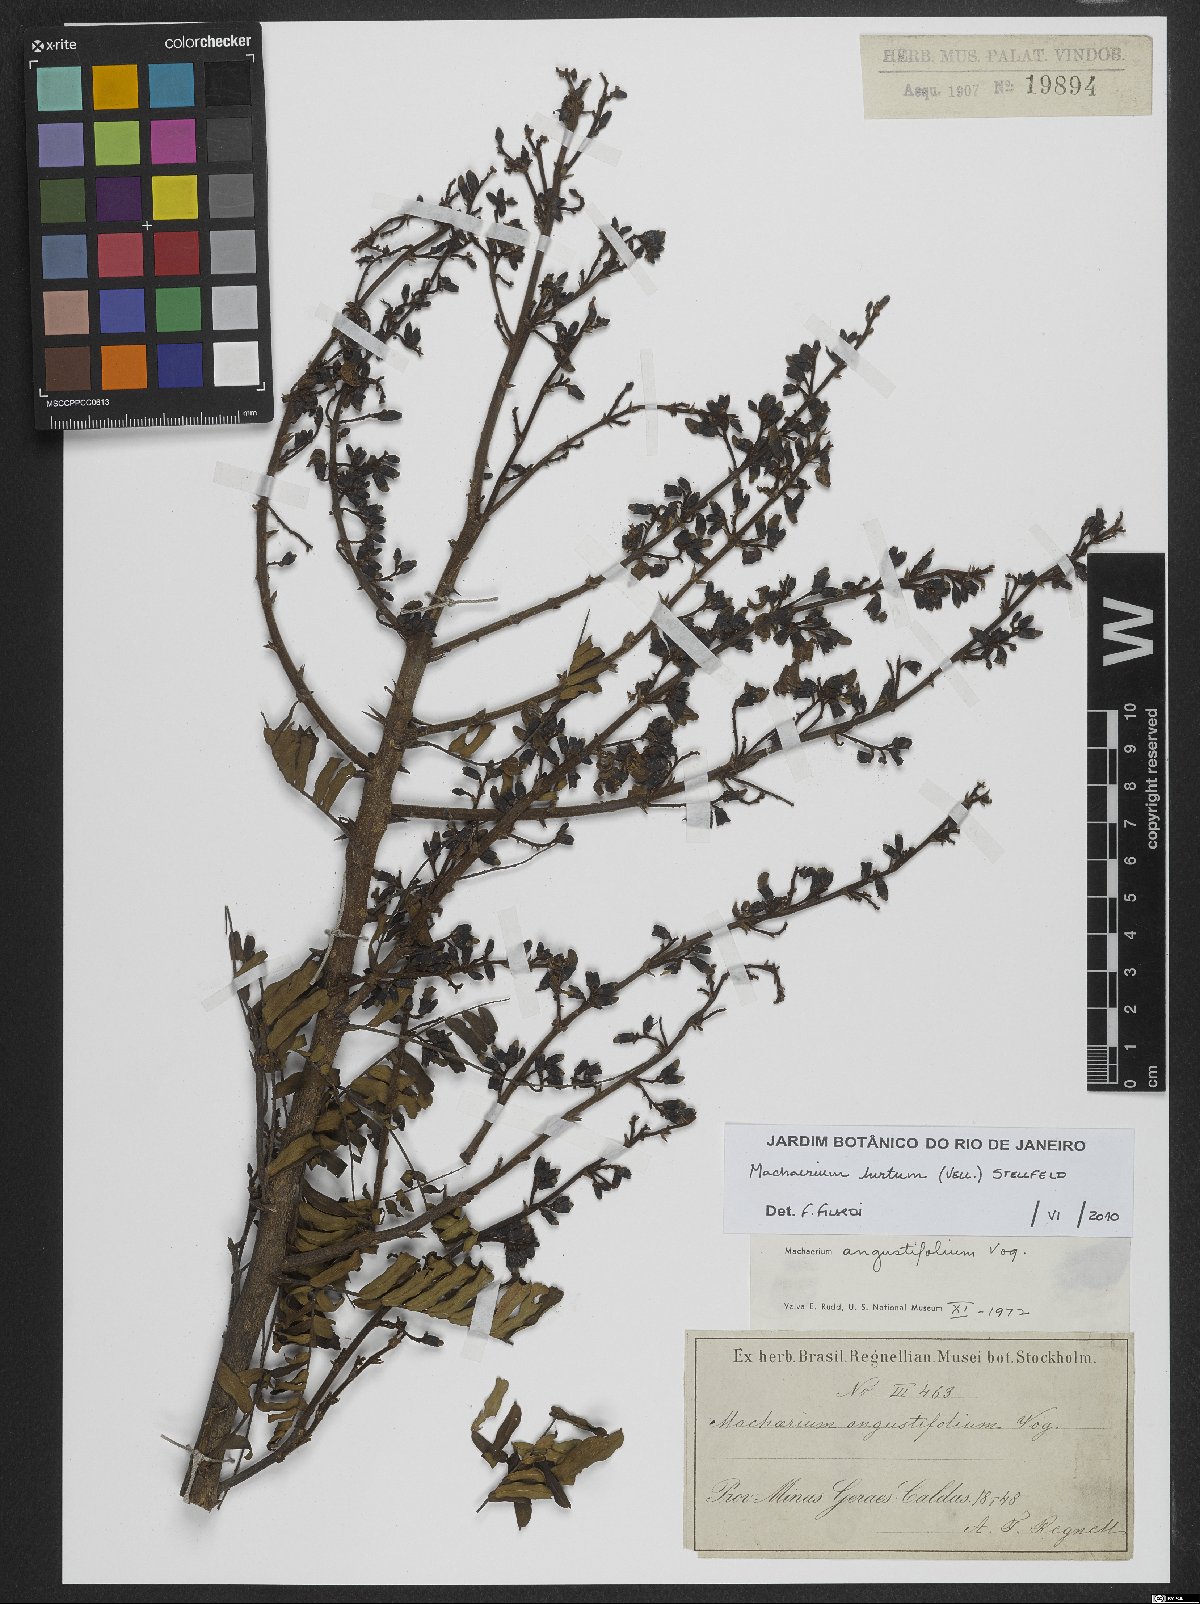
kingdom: Plantae
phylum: Tracheophyta
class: Magnoliopsida
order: Fabales
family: Fabaceae
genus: Machaerium
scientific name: Machaerium hirtum
